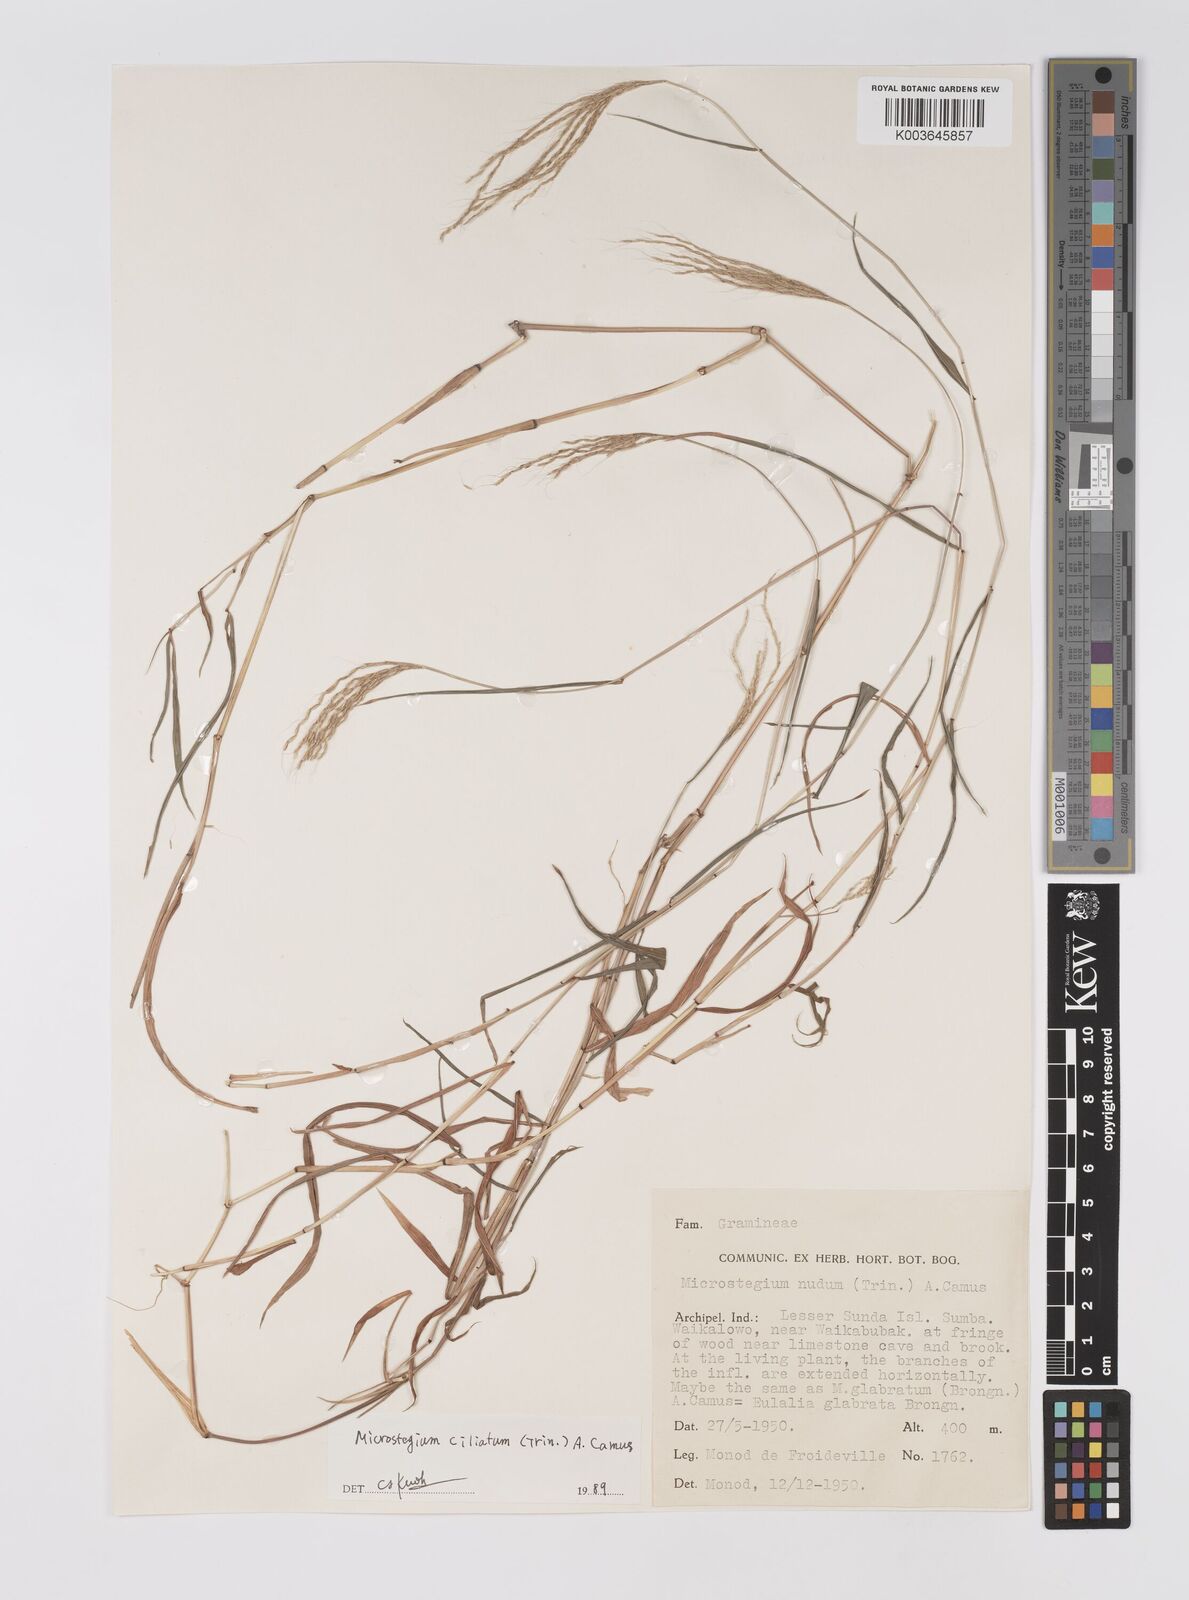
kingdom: Plantae
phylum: Tracheophyta
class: Liliopsida
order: Poales
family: Poaceae
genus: Microstegium
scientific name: Microstegium fasciculatum
